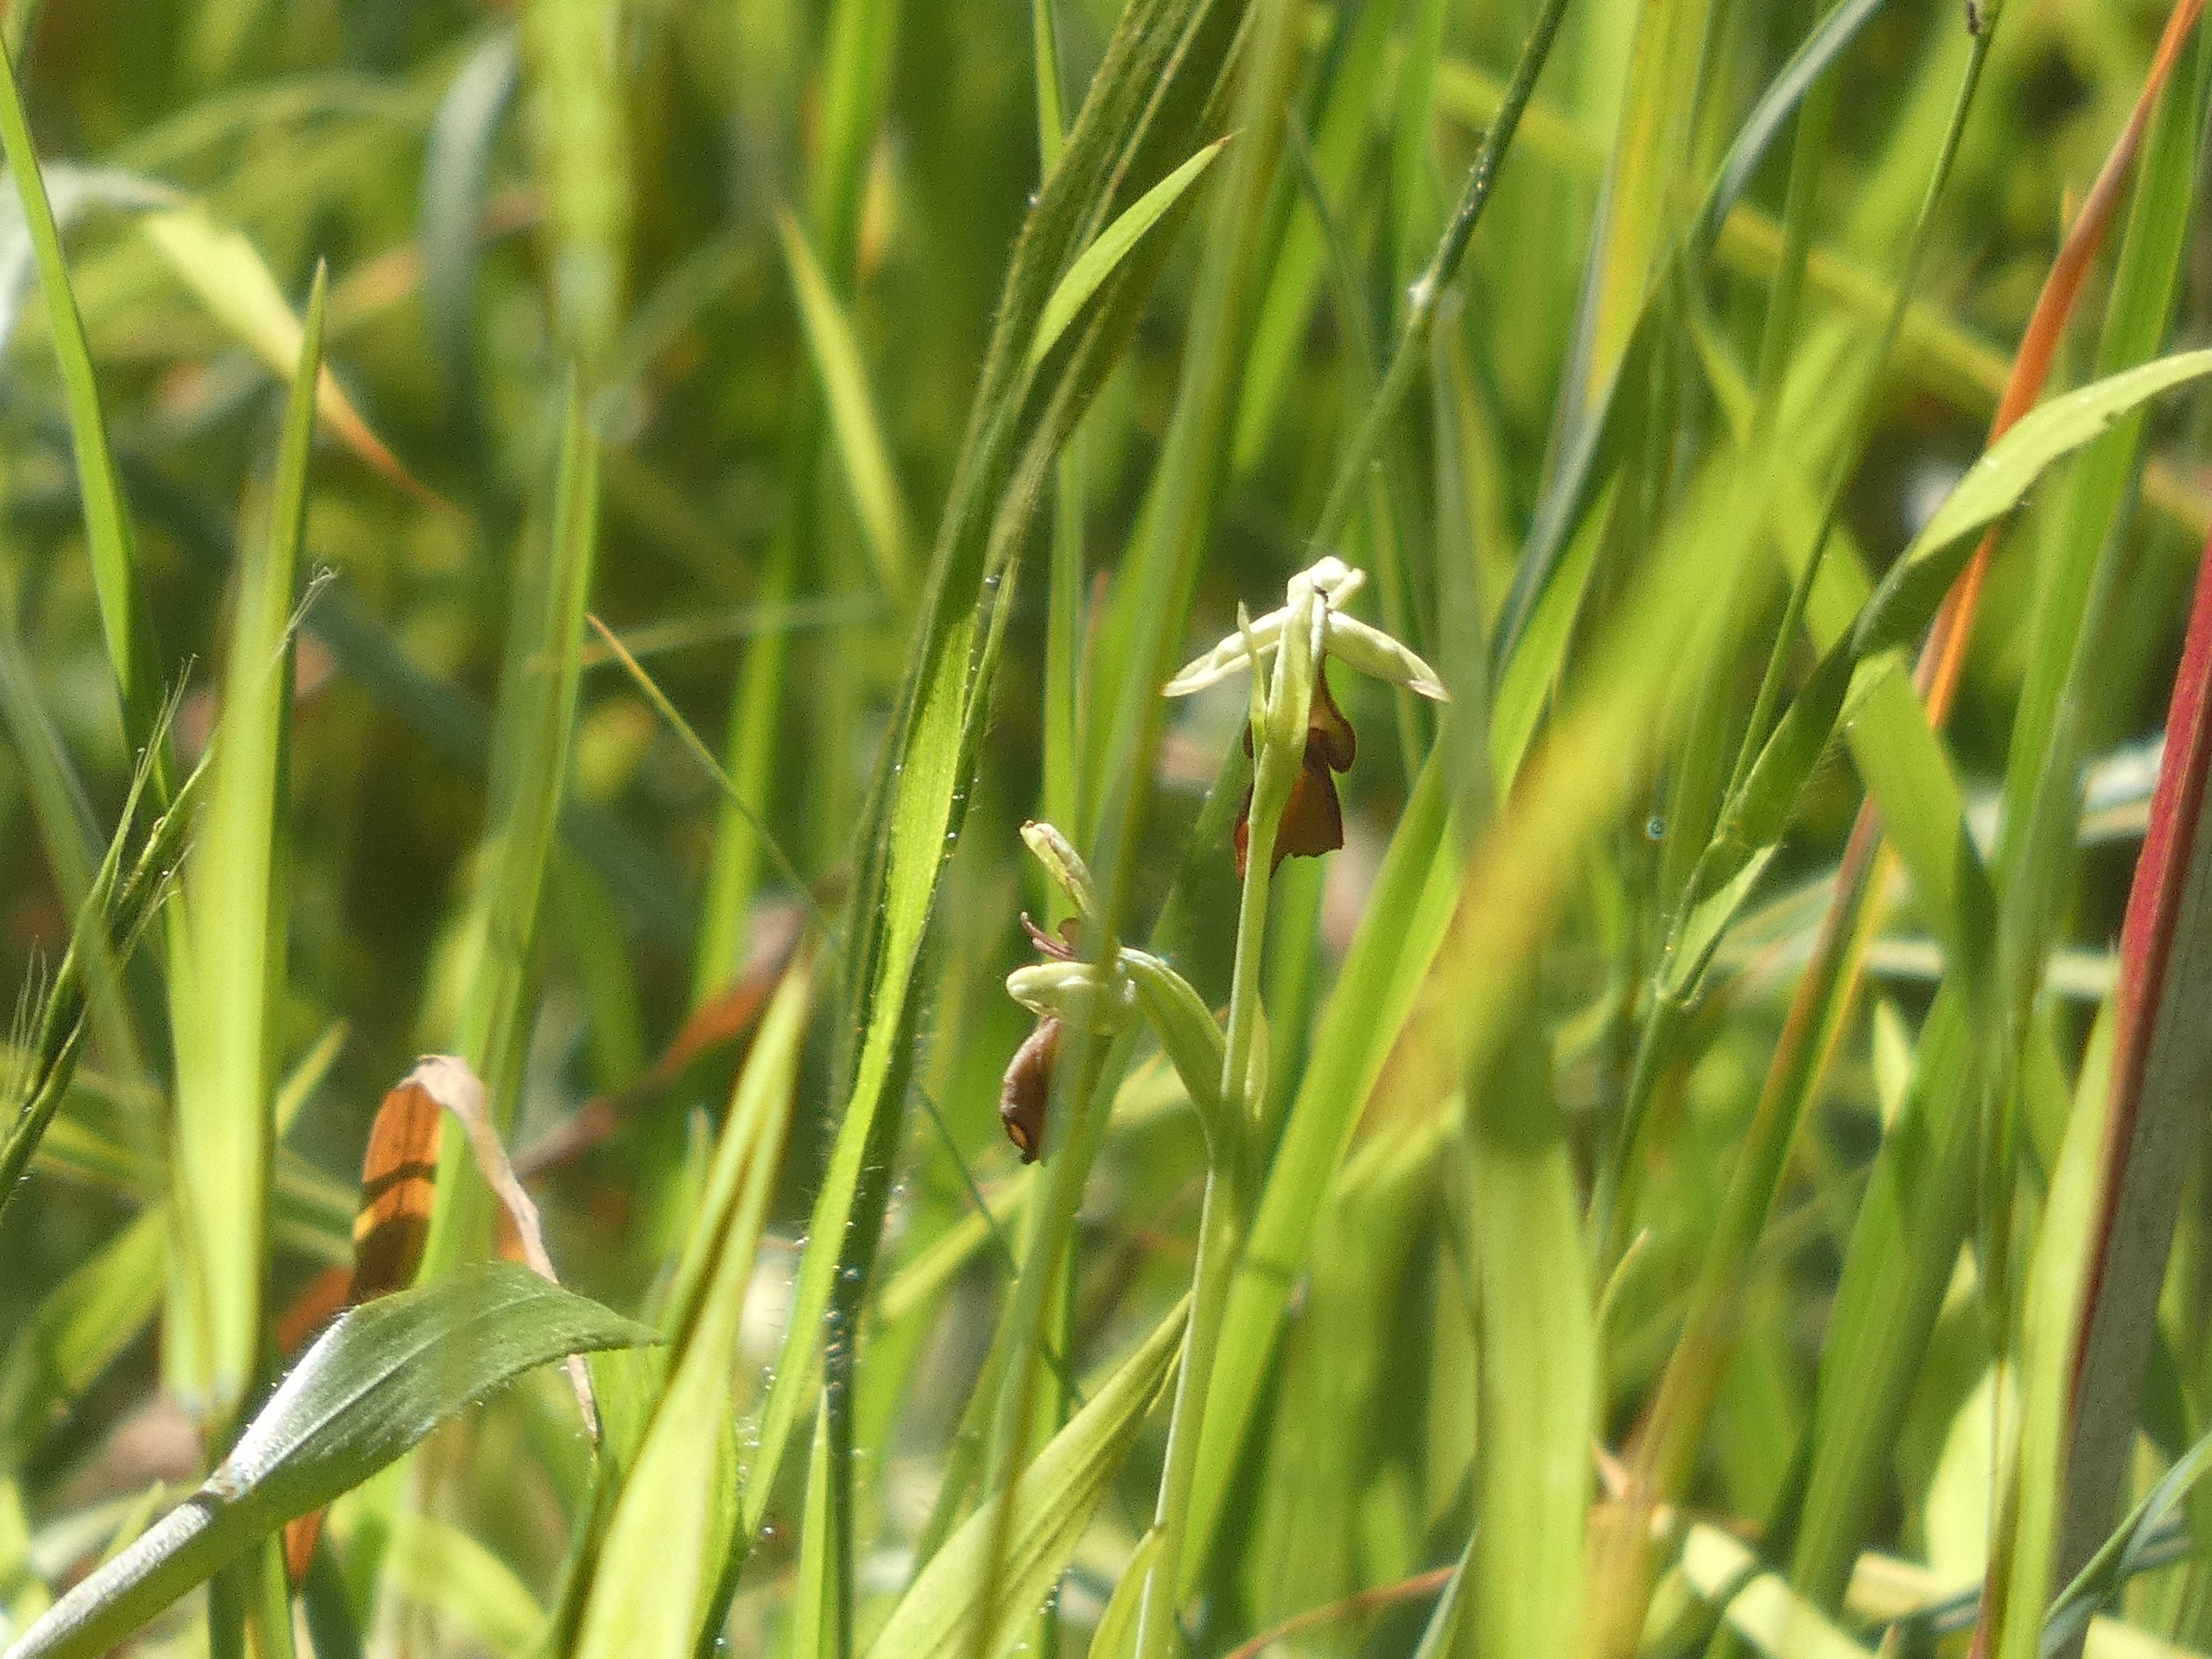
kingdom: Plantae
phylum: Tracheophyta
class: Liliopsida
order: Asparagales
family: Orchidaceae
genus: Ophrys
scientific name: Ophrys insectifera
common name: Flueblomst
